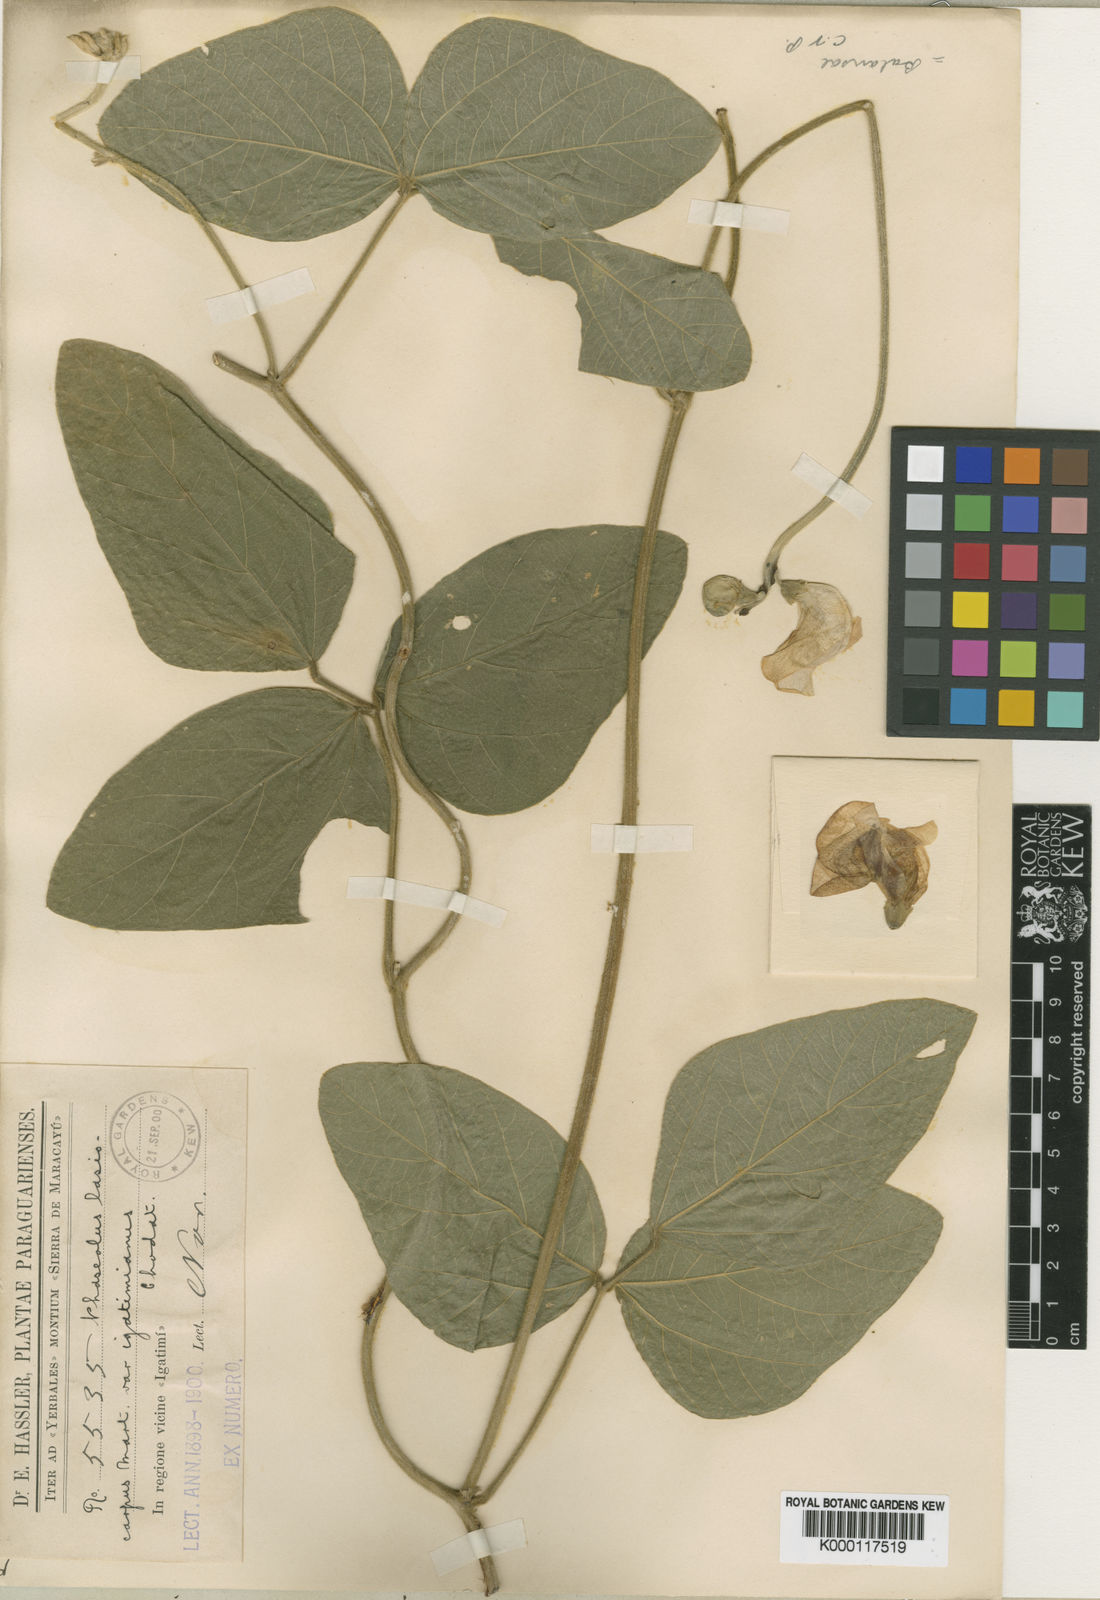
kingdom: Plantae
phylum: Tracheophyta
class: Magnoliopsida
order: Fabales
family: Fabaceae
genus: Phaseolus
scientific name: Phaseolus
